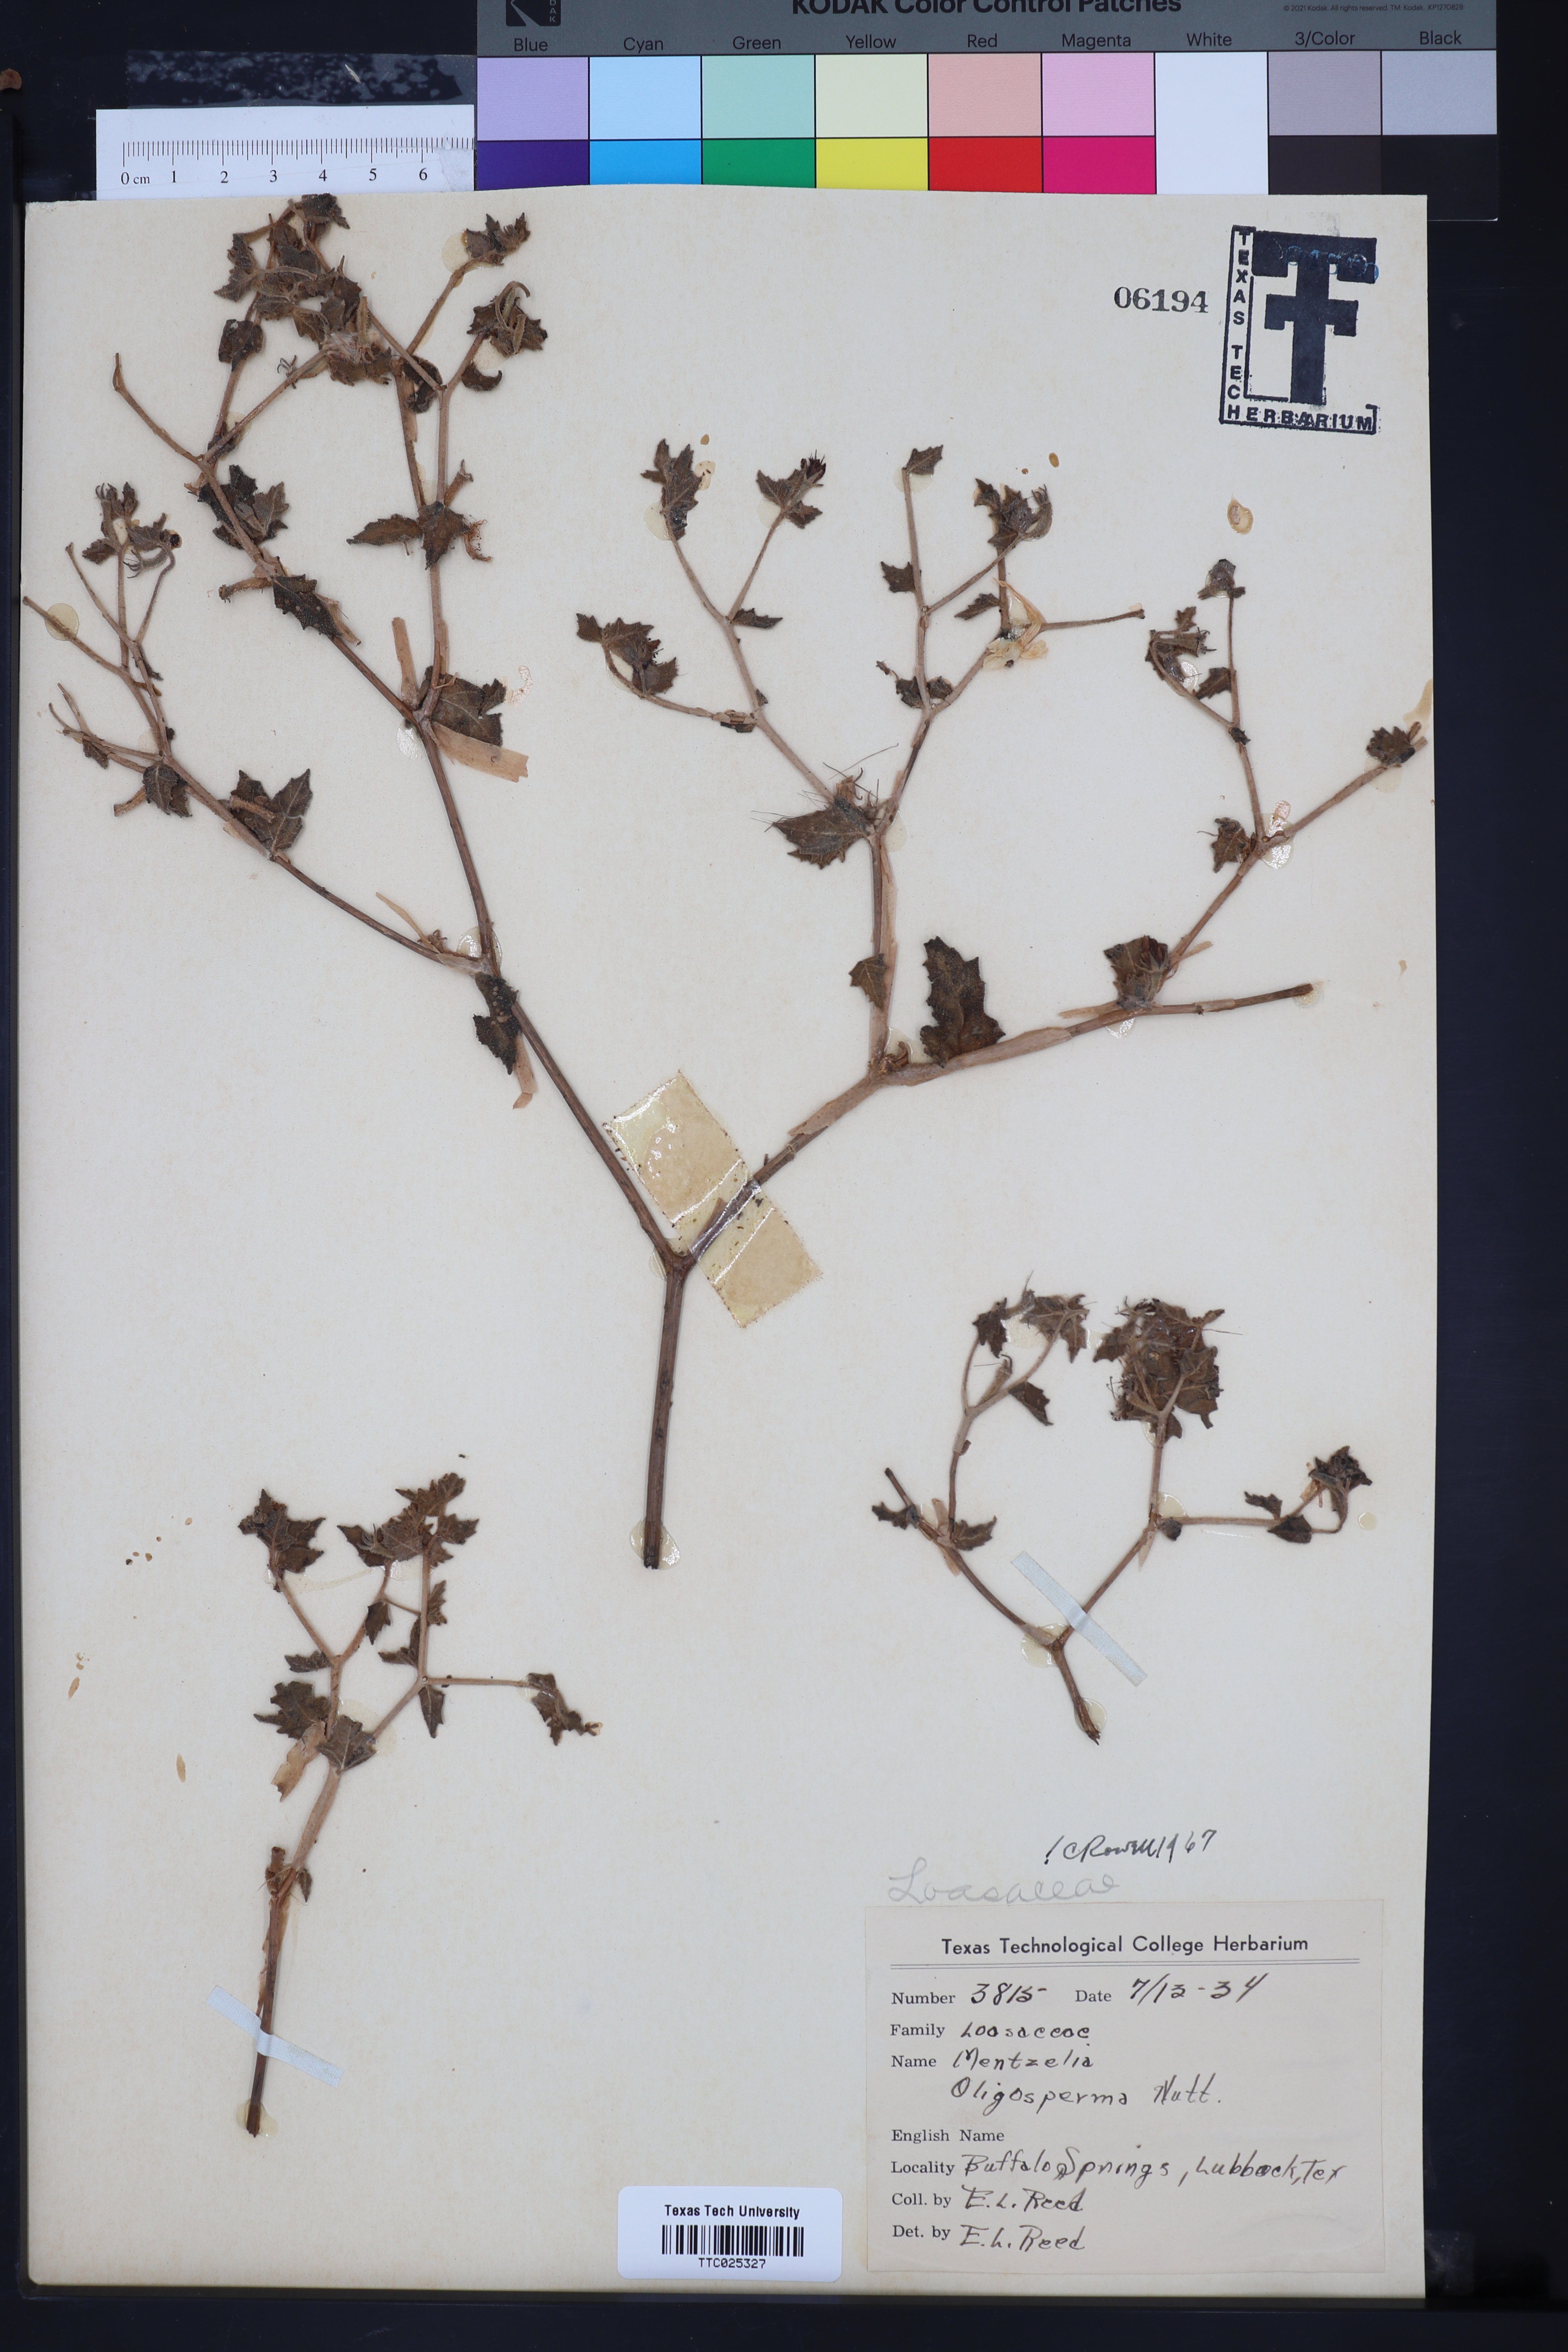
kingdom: Plantae
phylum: Tracheophyta
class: Magnoliopsida
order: Cornales
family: Loasaceae
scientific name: Loasaceae
